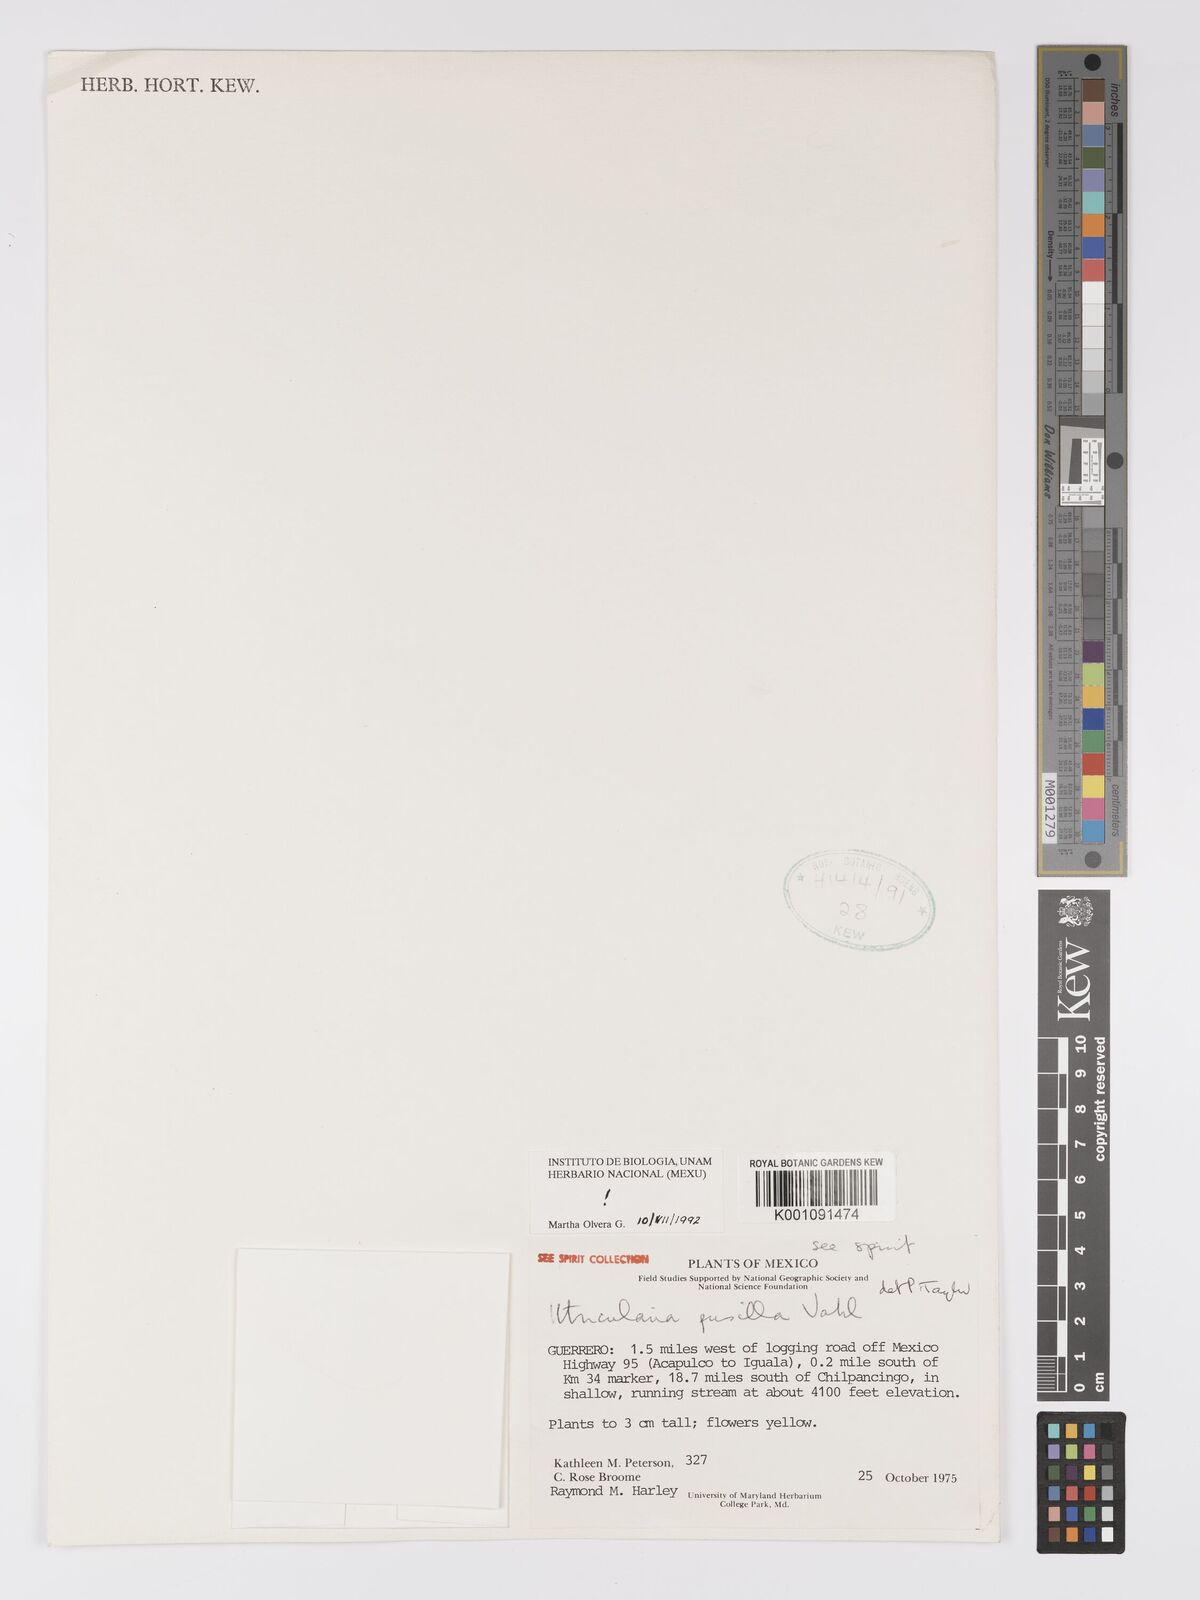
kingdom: Plantae
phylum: Tracheophyta
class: Magnoliopsida
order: Lamiales
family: Lentibulariaceae
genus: Utricularia
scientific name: Utricularia pusilla
